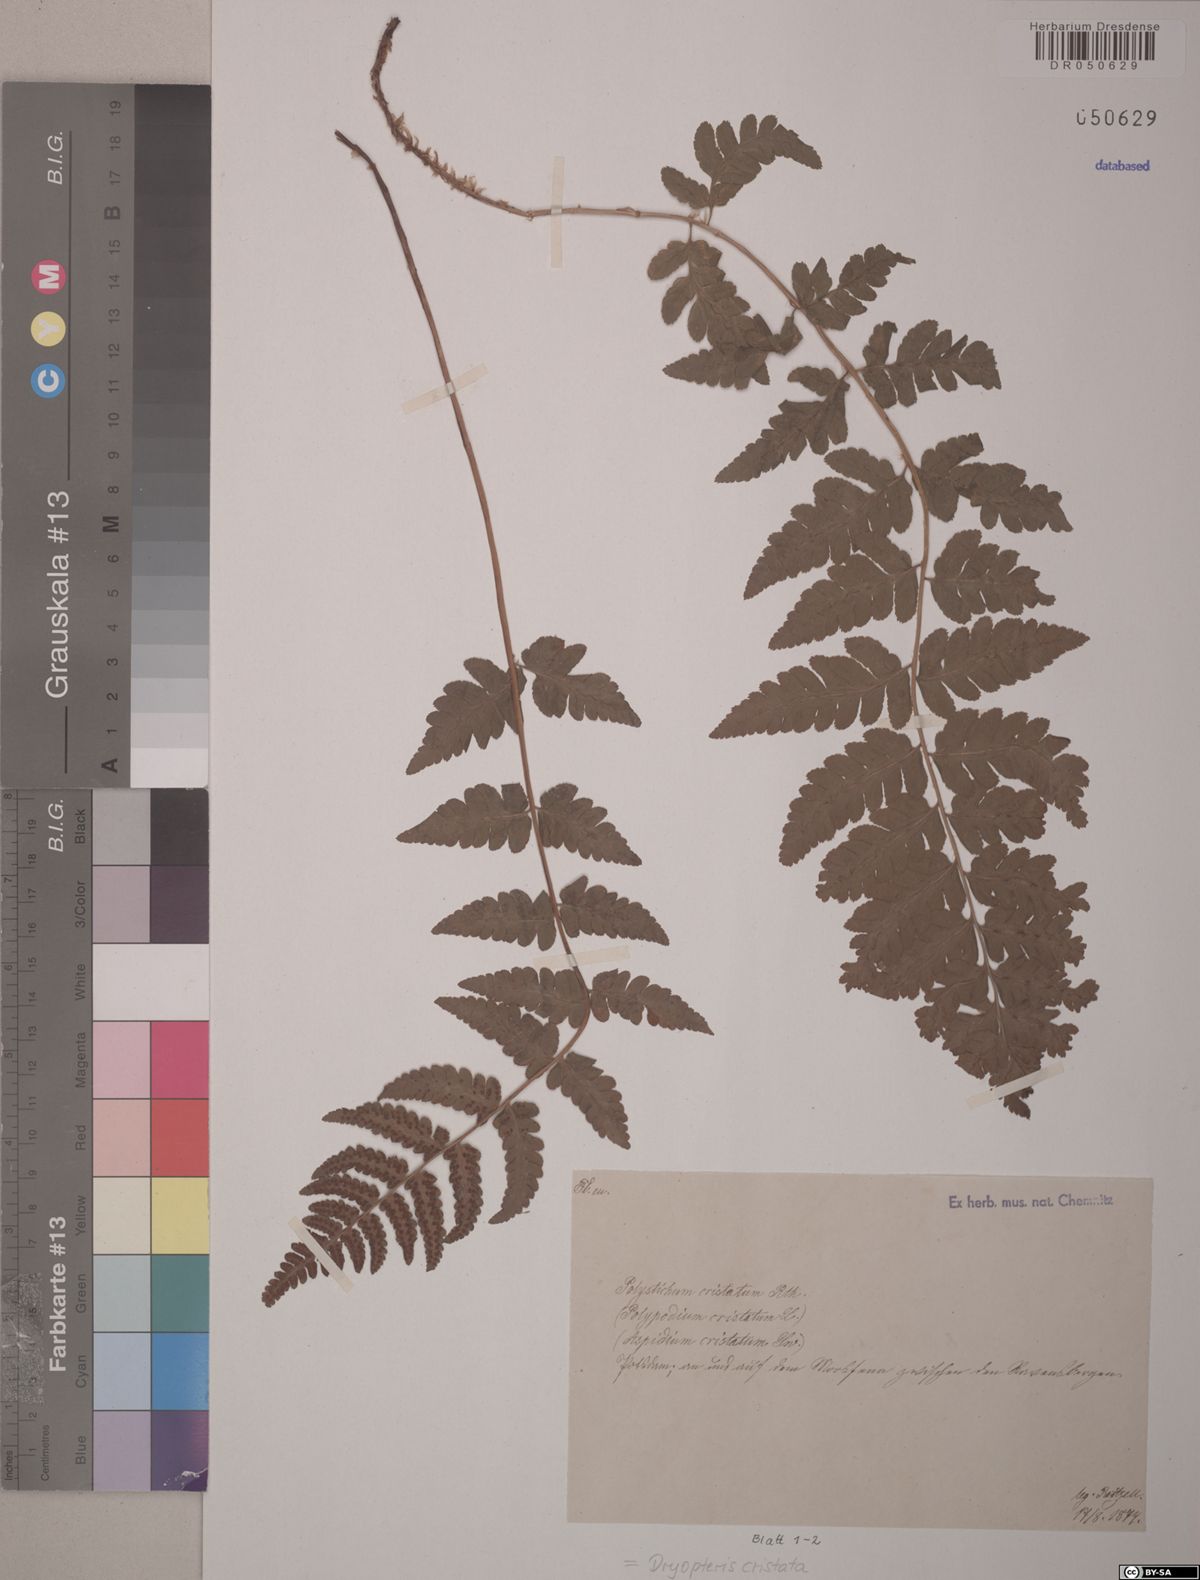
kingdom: Plantae
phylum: Tracheophyta
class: Polypodiopsida
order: Polypodiales
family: Dryopteridaceae
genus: Dryopteris
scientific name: Dryopteris cristata
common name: Crested wood fern
